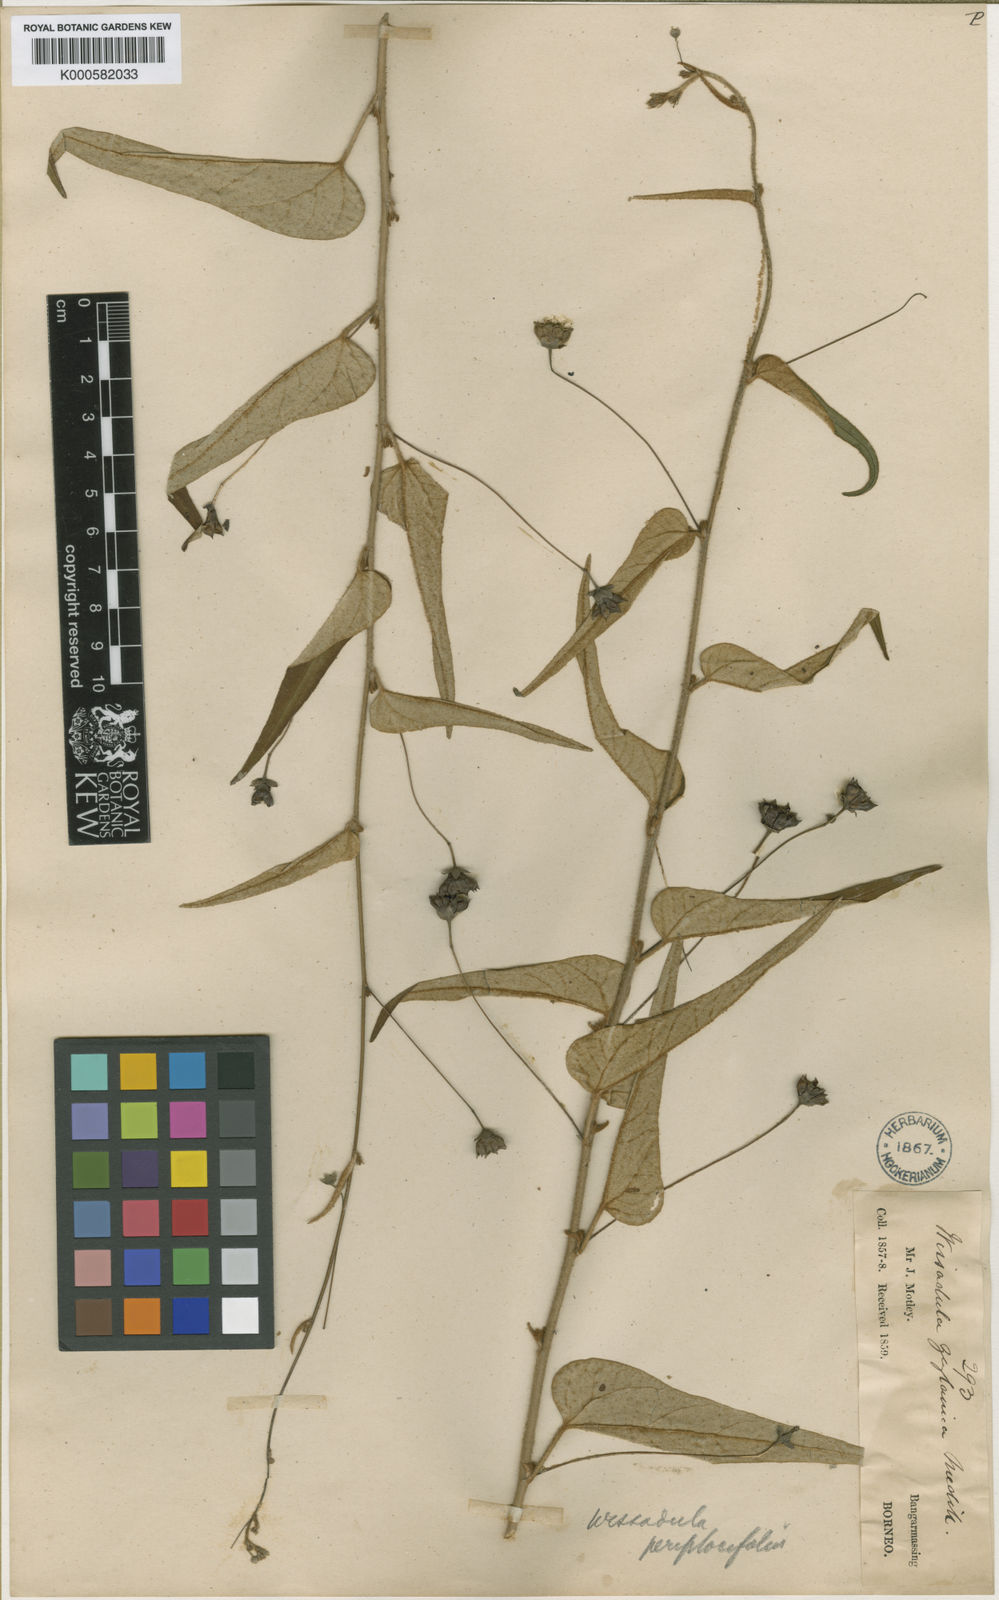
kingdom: Plantae
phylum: Tracheophyta
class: Magnoliopsida
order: Malvales
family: Malvaceae
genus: Wissadula
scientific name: Wissadula periplocifolia
